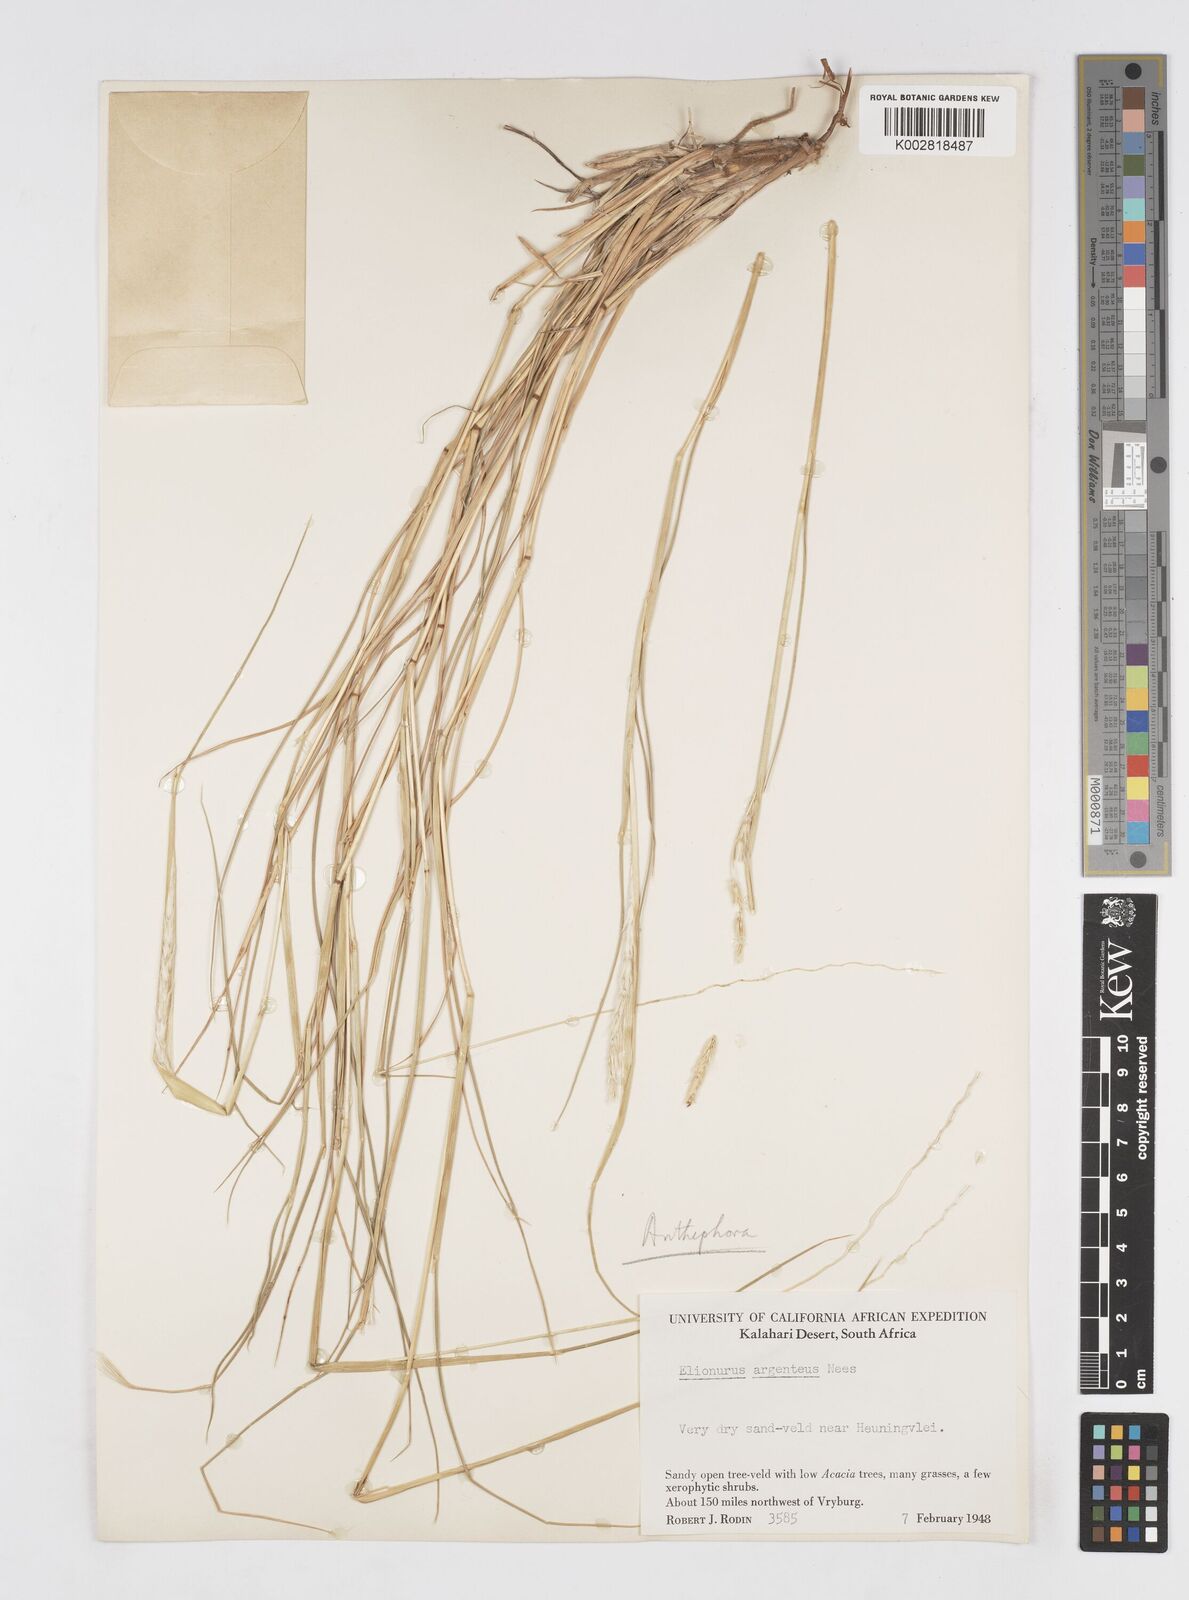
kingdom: Plantae
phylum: Tracheophyta
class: Liliopsida
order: Poales
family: Poaceae
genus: Anthephora
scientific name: Anthephora argentea
